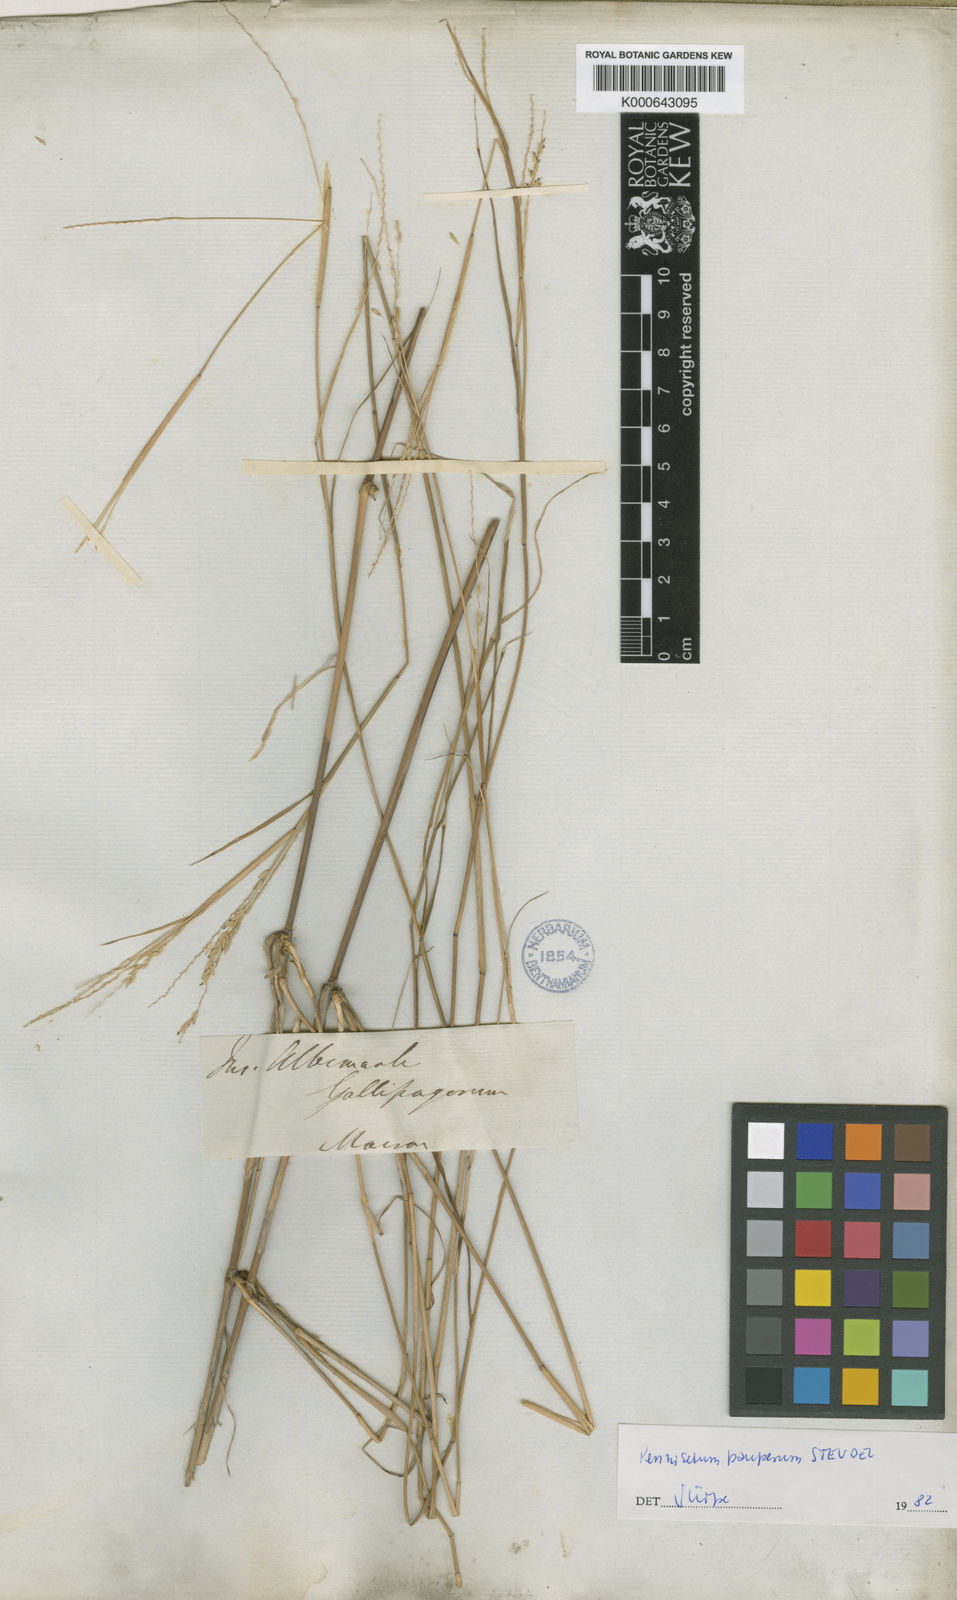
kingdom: Plantae
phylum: Tracheophyta
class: Liliopsida
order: Poales
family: Poaceae
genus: Cenchrus
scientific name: Cenchrus pauper
